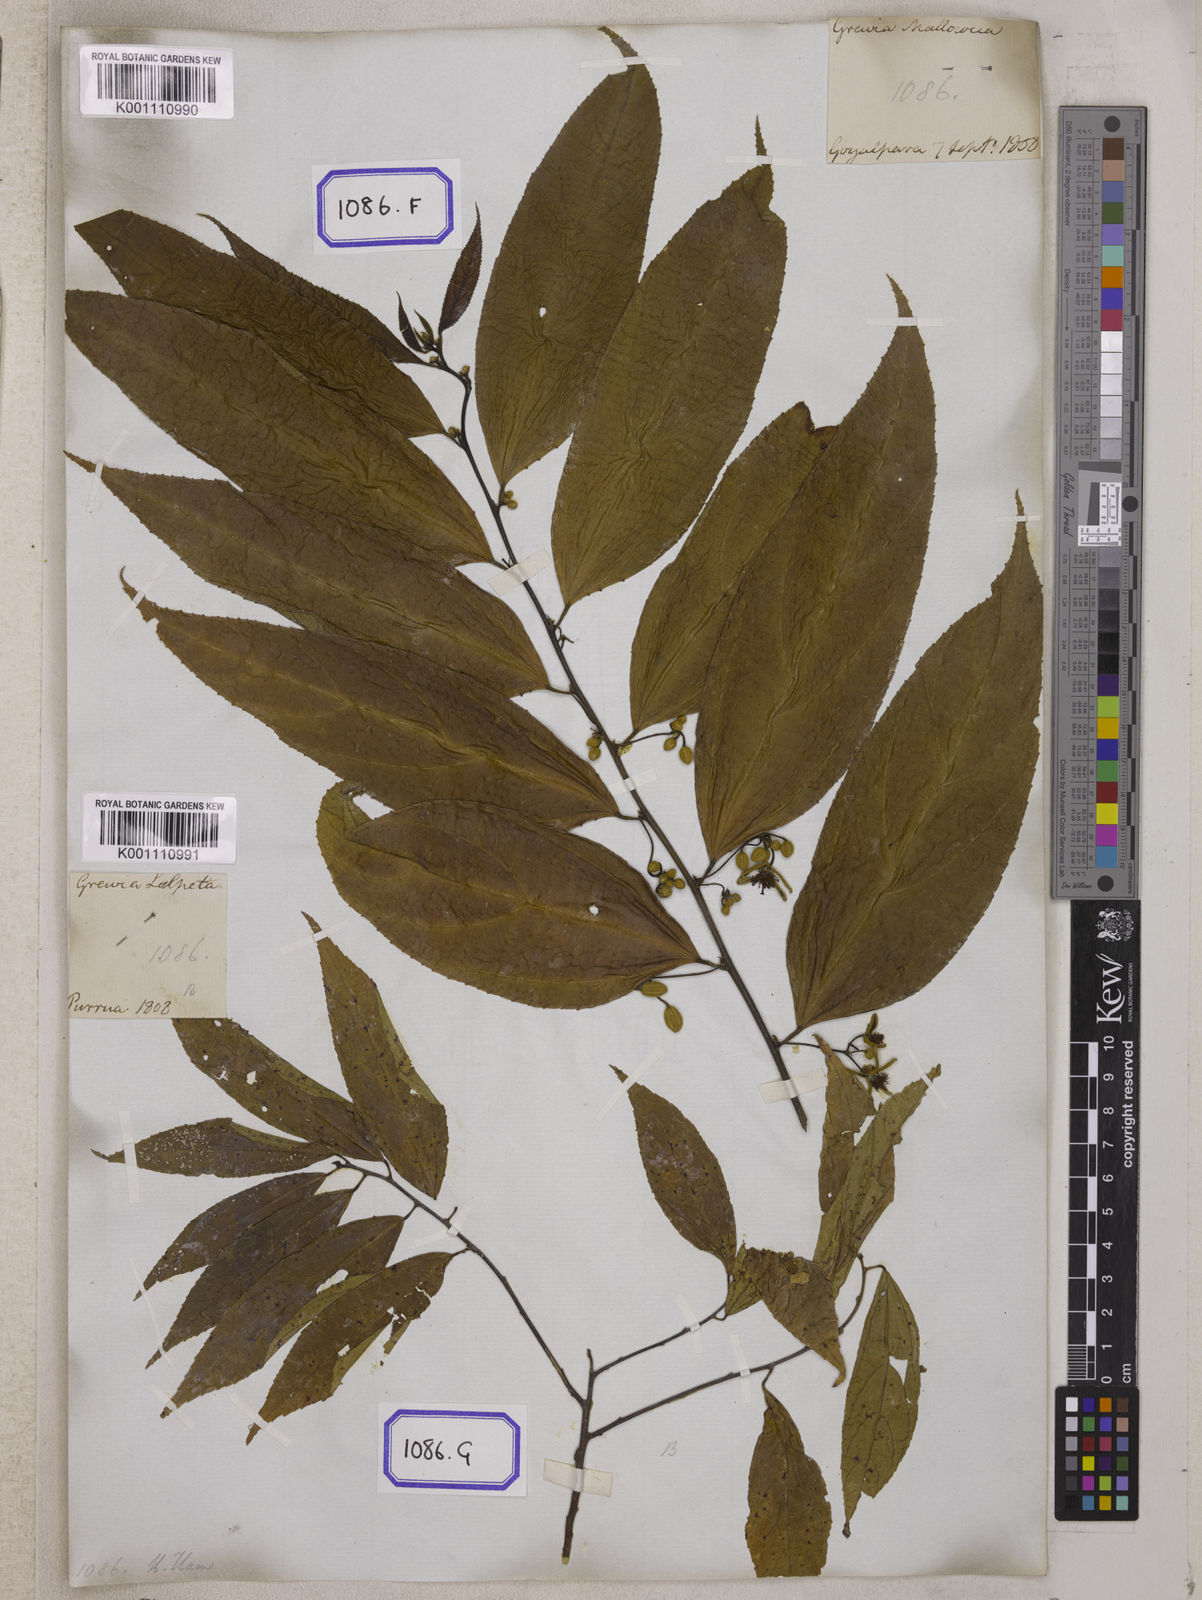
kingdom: Plantae
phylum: Tracheophyta
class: Magnoliopsida
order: Malvales
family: Malvaceae
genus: Grewia
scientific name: Grewia
